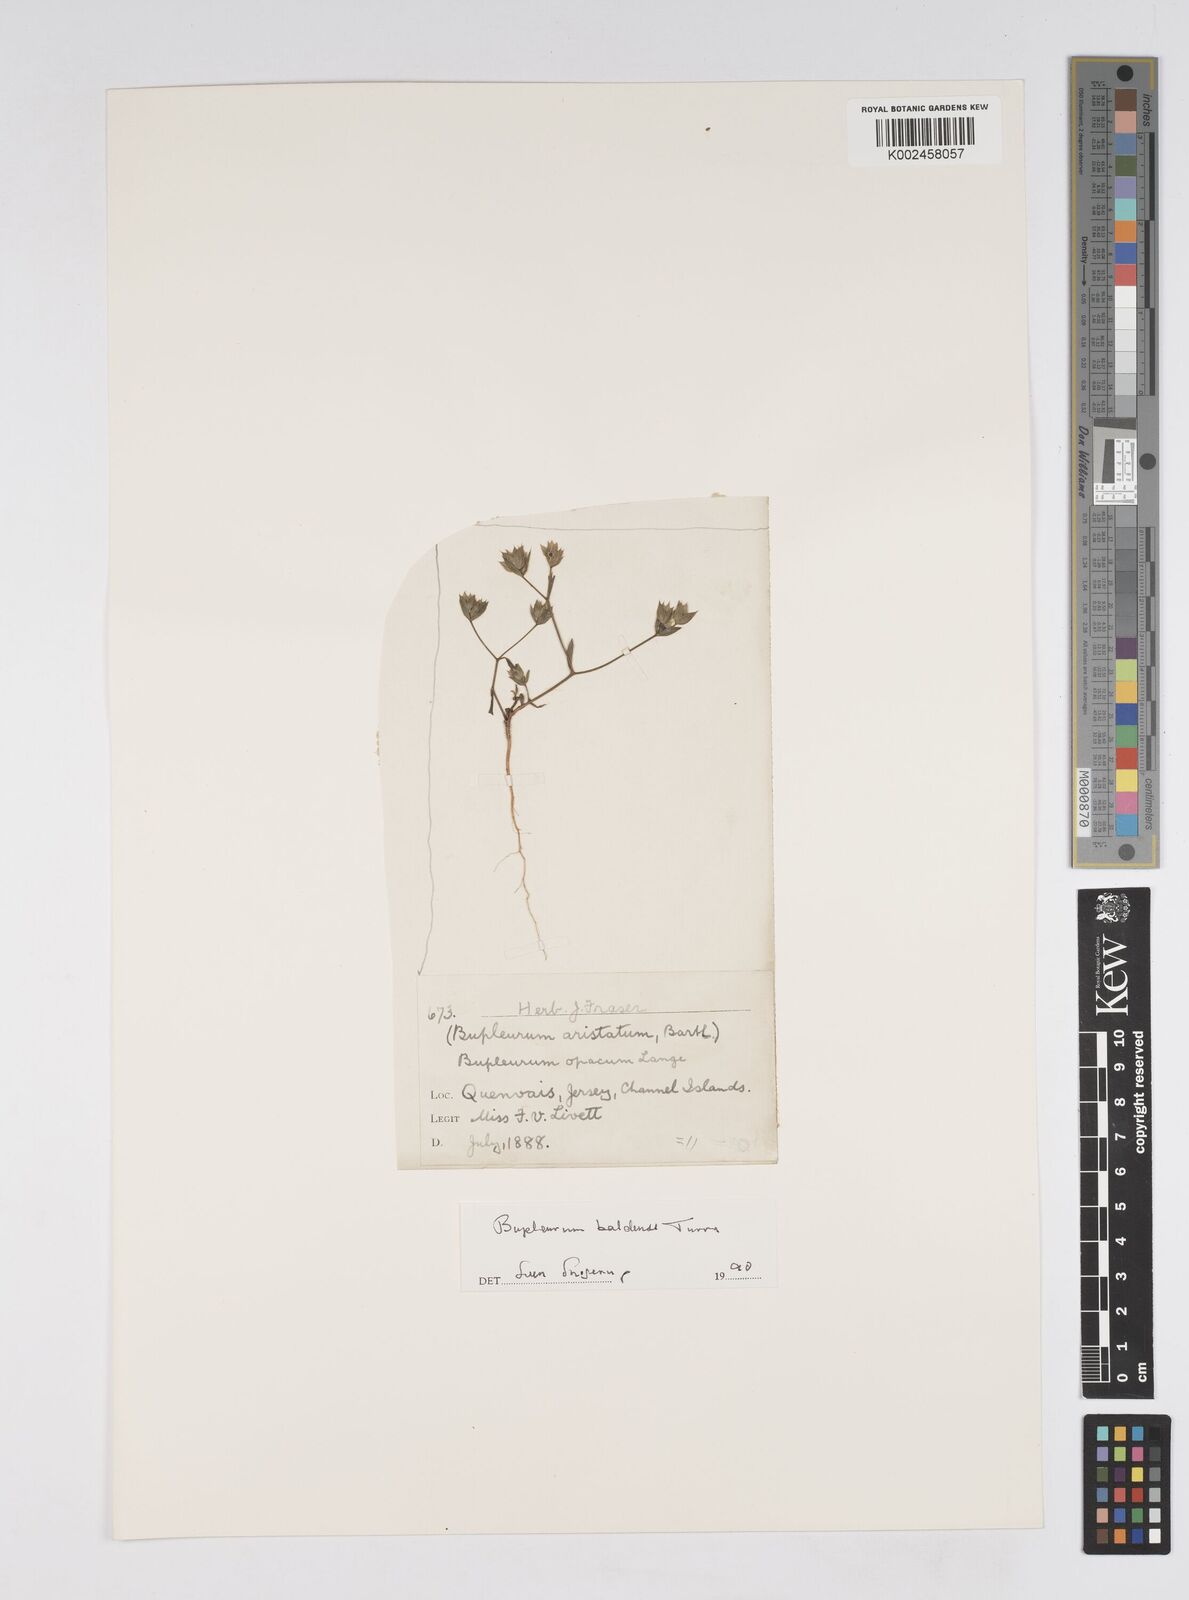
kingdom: Plantae
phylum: Tracheophyta
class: Magnoliopsida
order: Apiales
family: Apiaceae
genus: Bupleurum
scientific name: Bupleurum baldense
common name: Small hare's-ear
